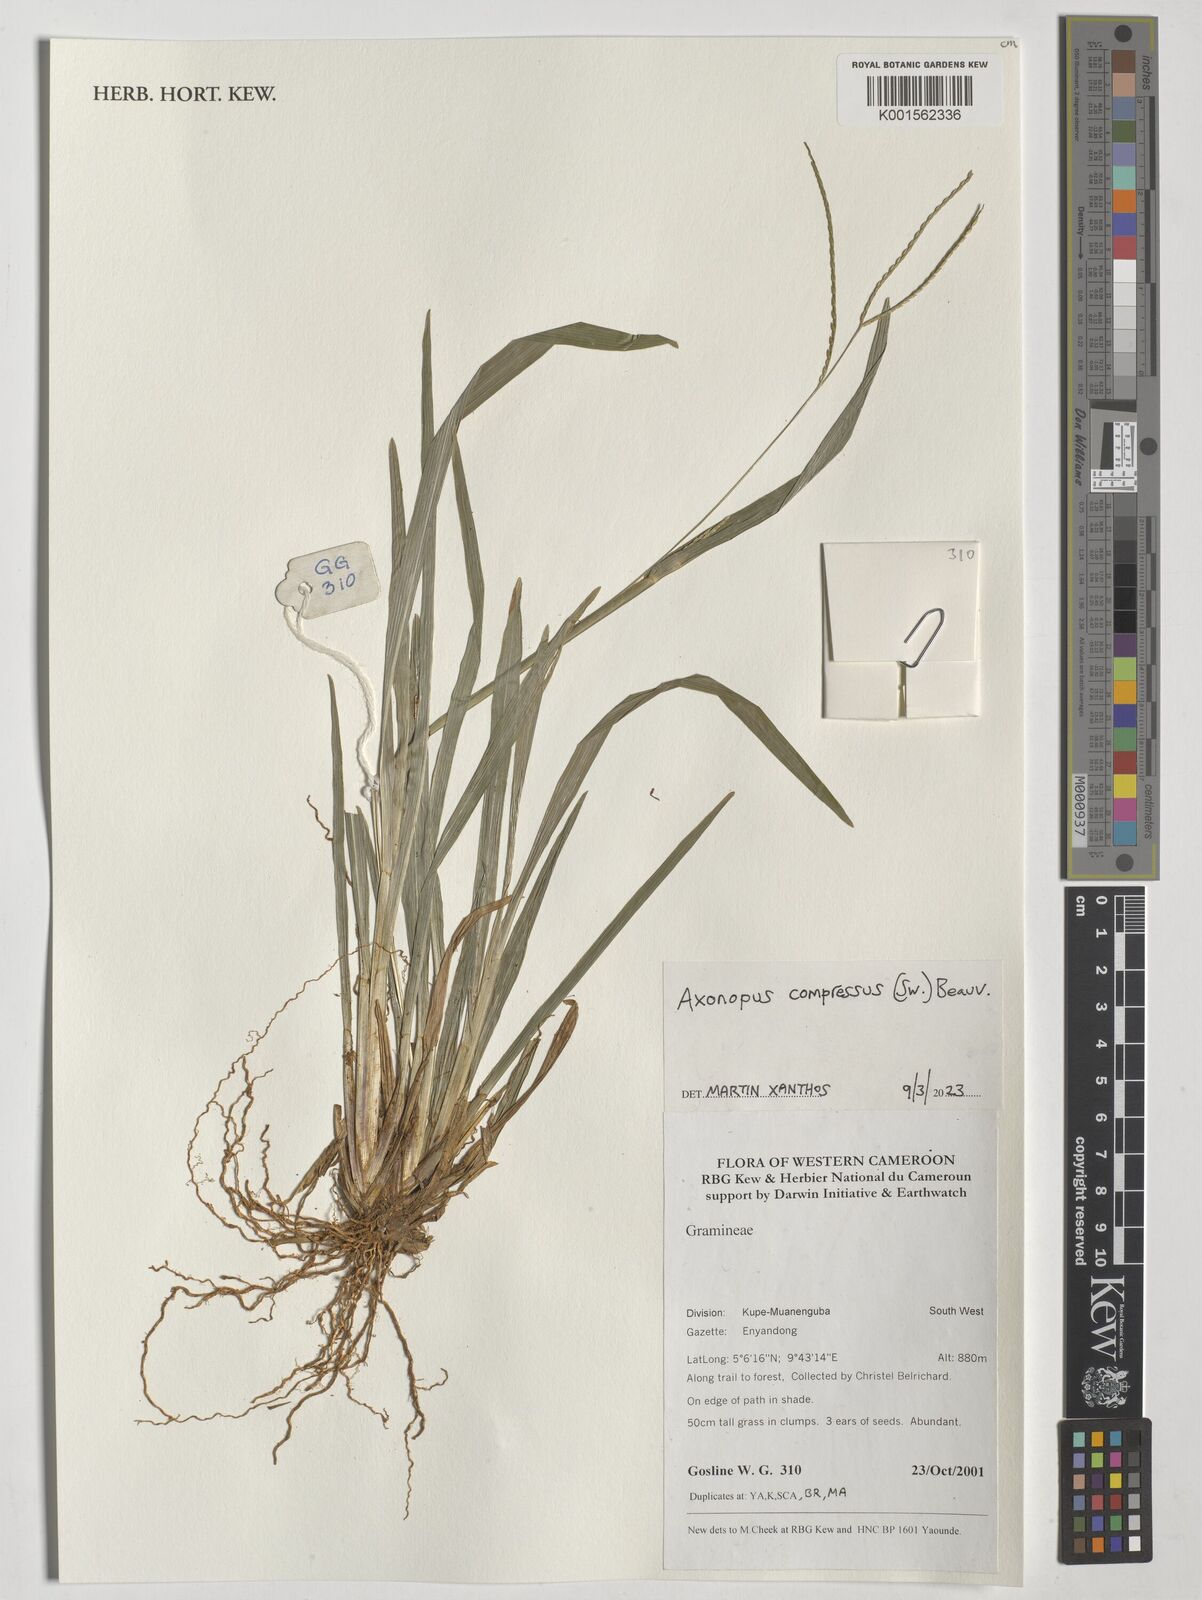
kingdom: Plantae
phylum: Tracheophyta
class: Liliopsida
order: Poales
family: Poaceae
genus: Axonopus
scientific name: Axonopus compressus
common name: American carpet grass
